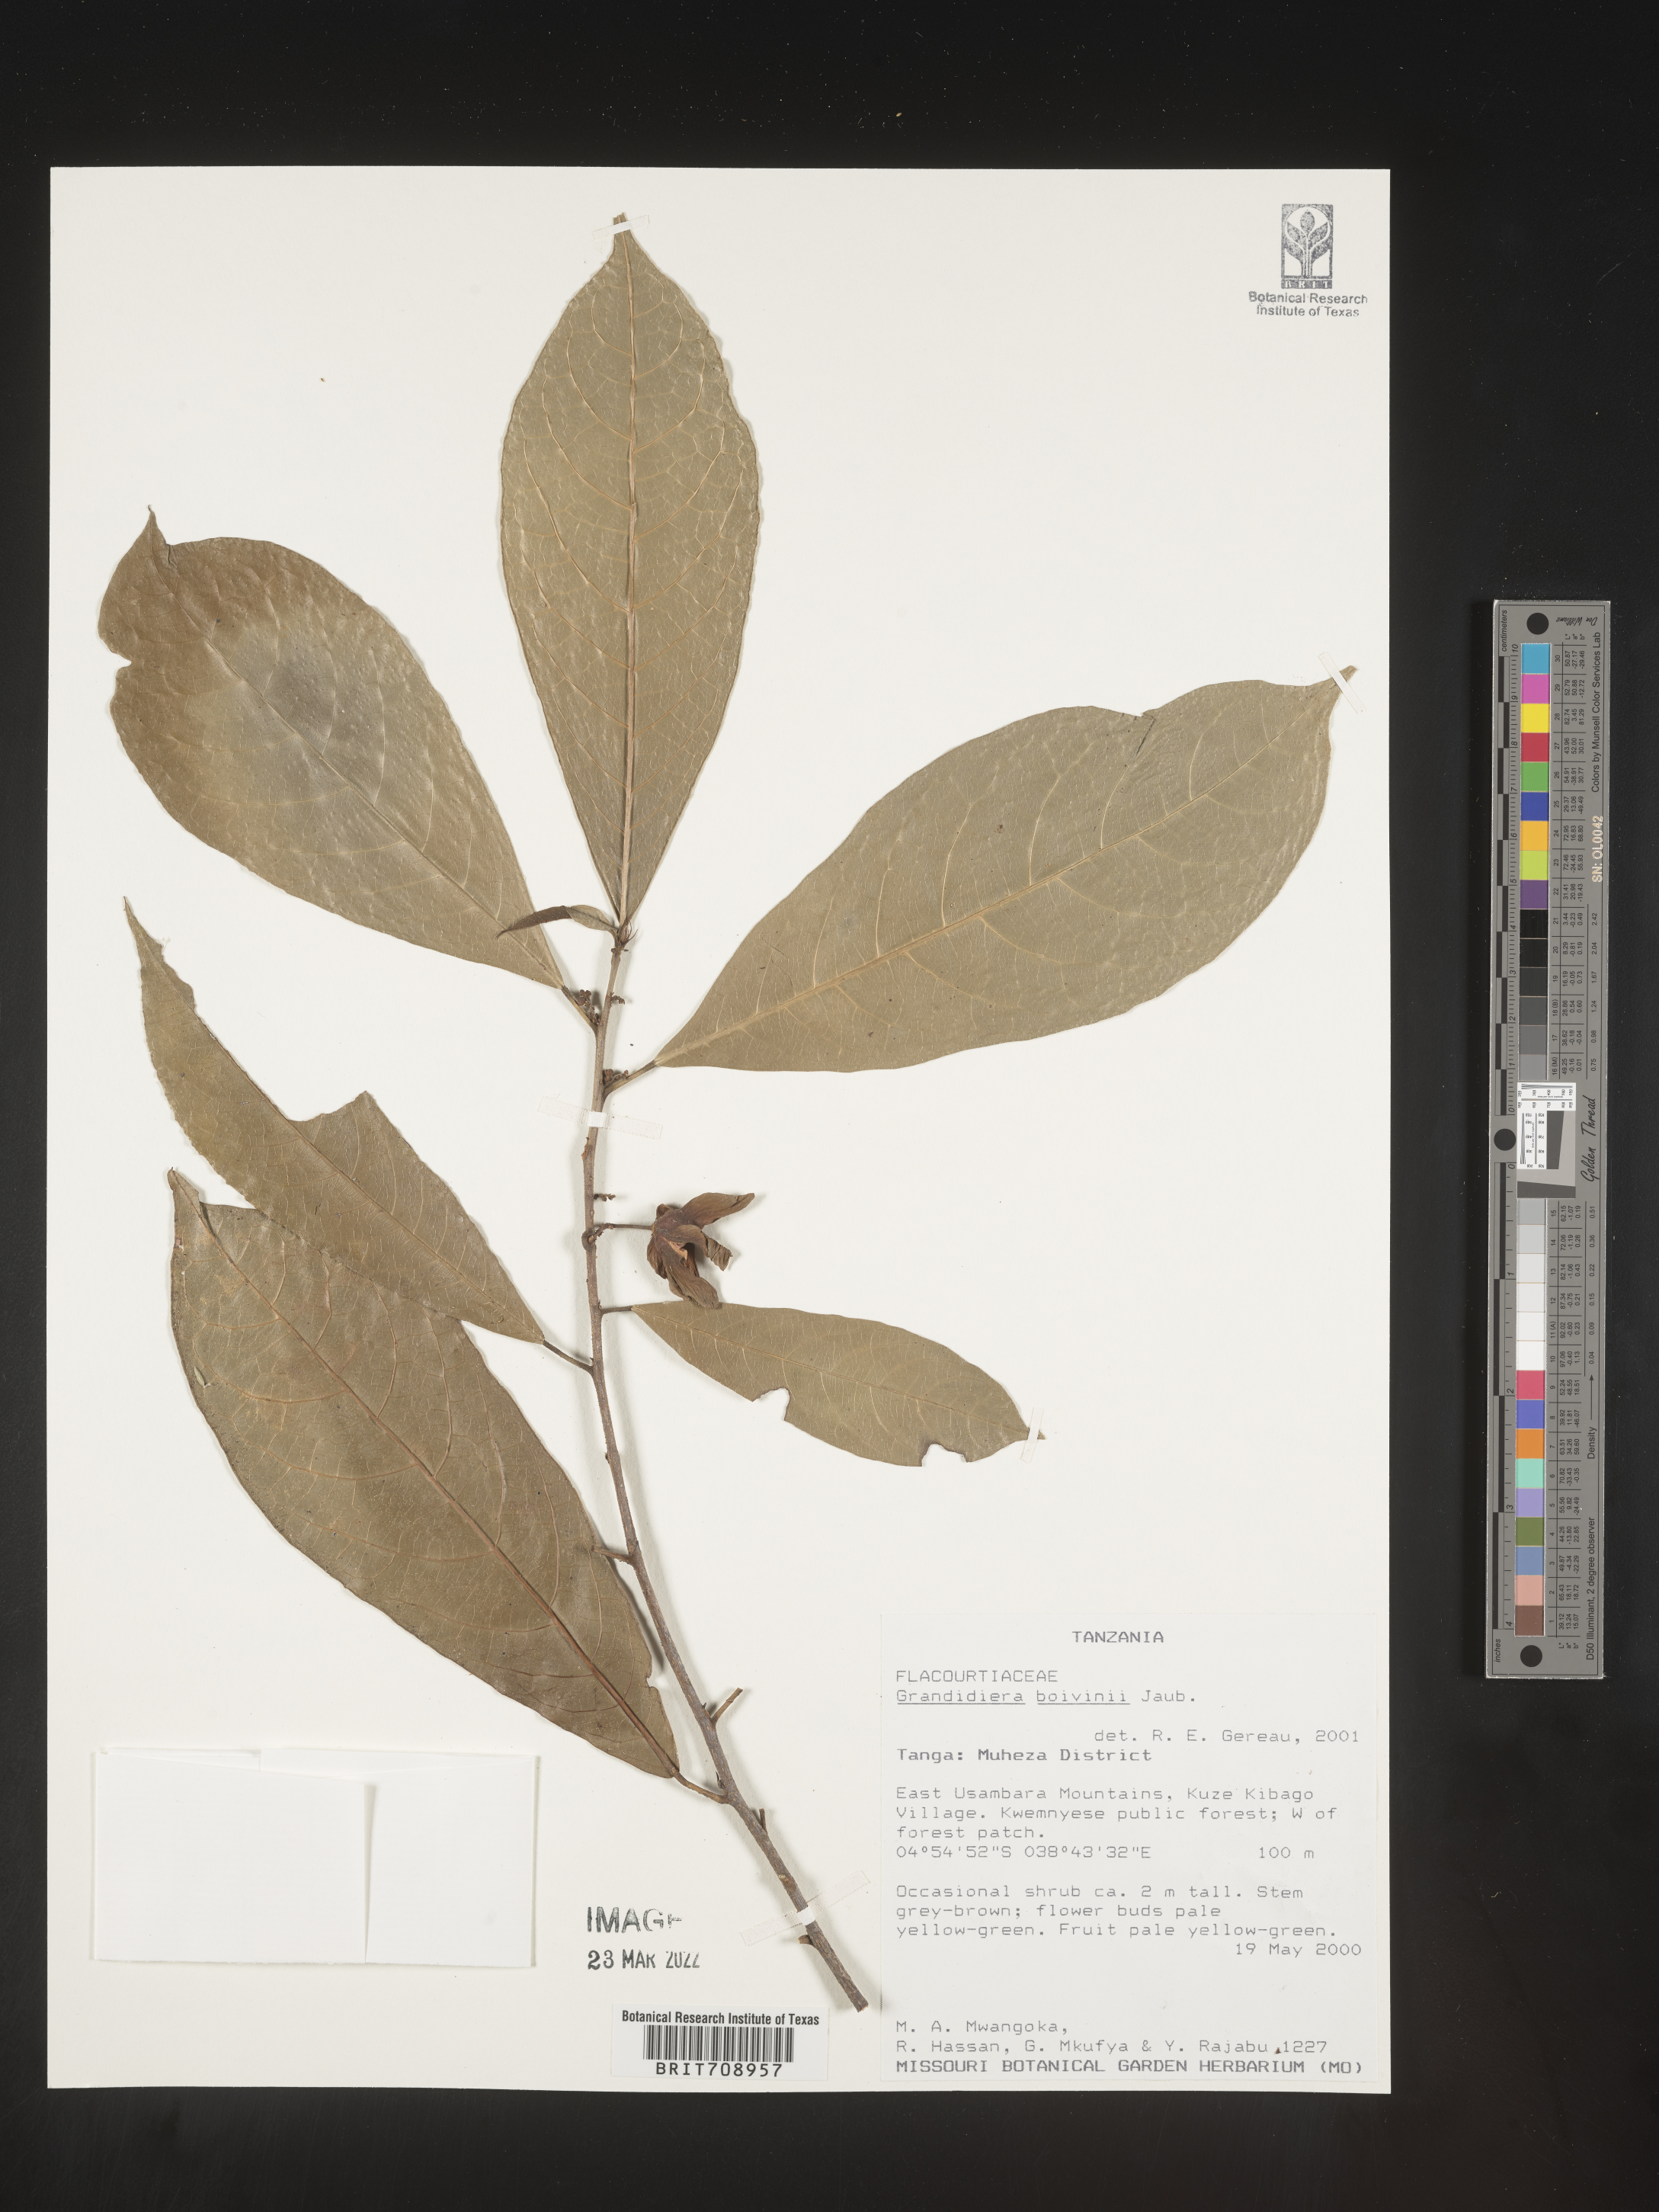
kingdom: Plantae
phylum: Tracheophyta
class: Magnoliopsida
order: Malpighiales
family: Achariaceae
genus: Grandidiera
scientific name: Grandidiera
